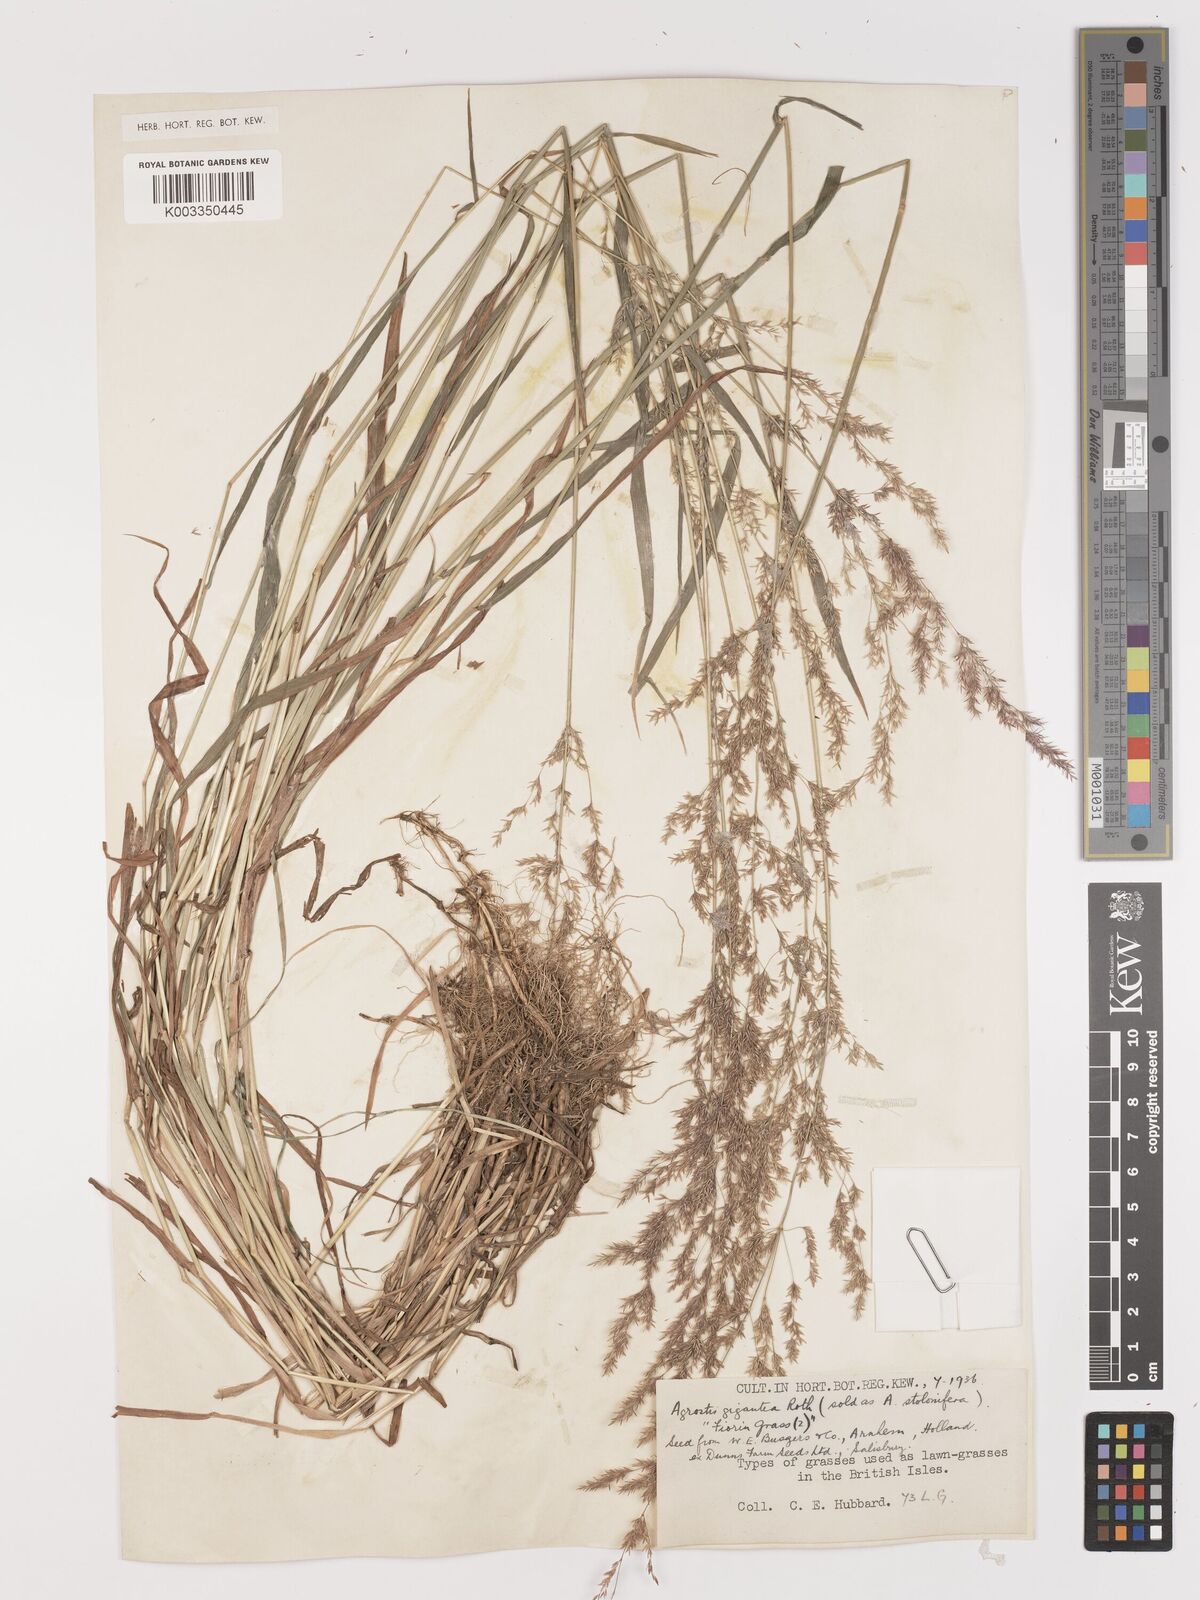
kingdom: Plantae
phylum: Tracheophyta
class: Liliopsida
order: Poales
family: Poaceae
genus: Agrostis
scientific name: Agrostis gigantea
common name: Black bent
